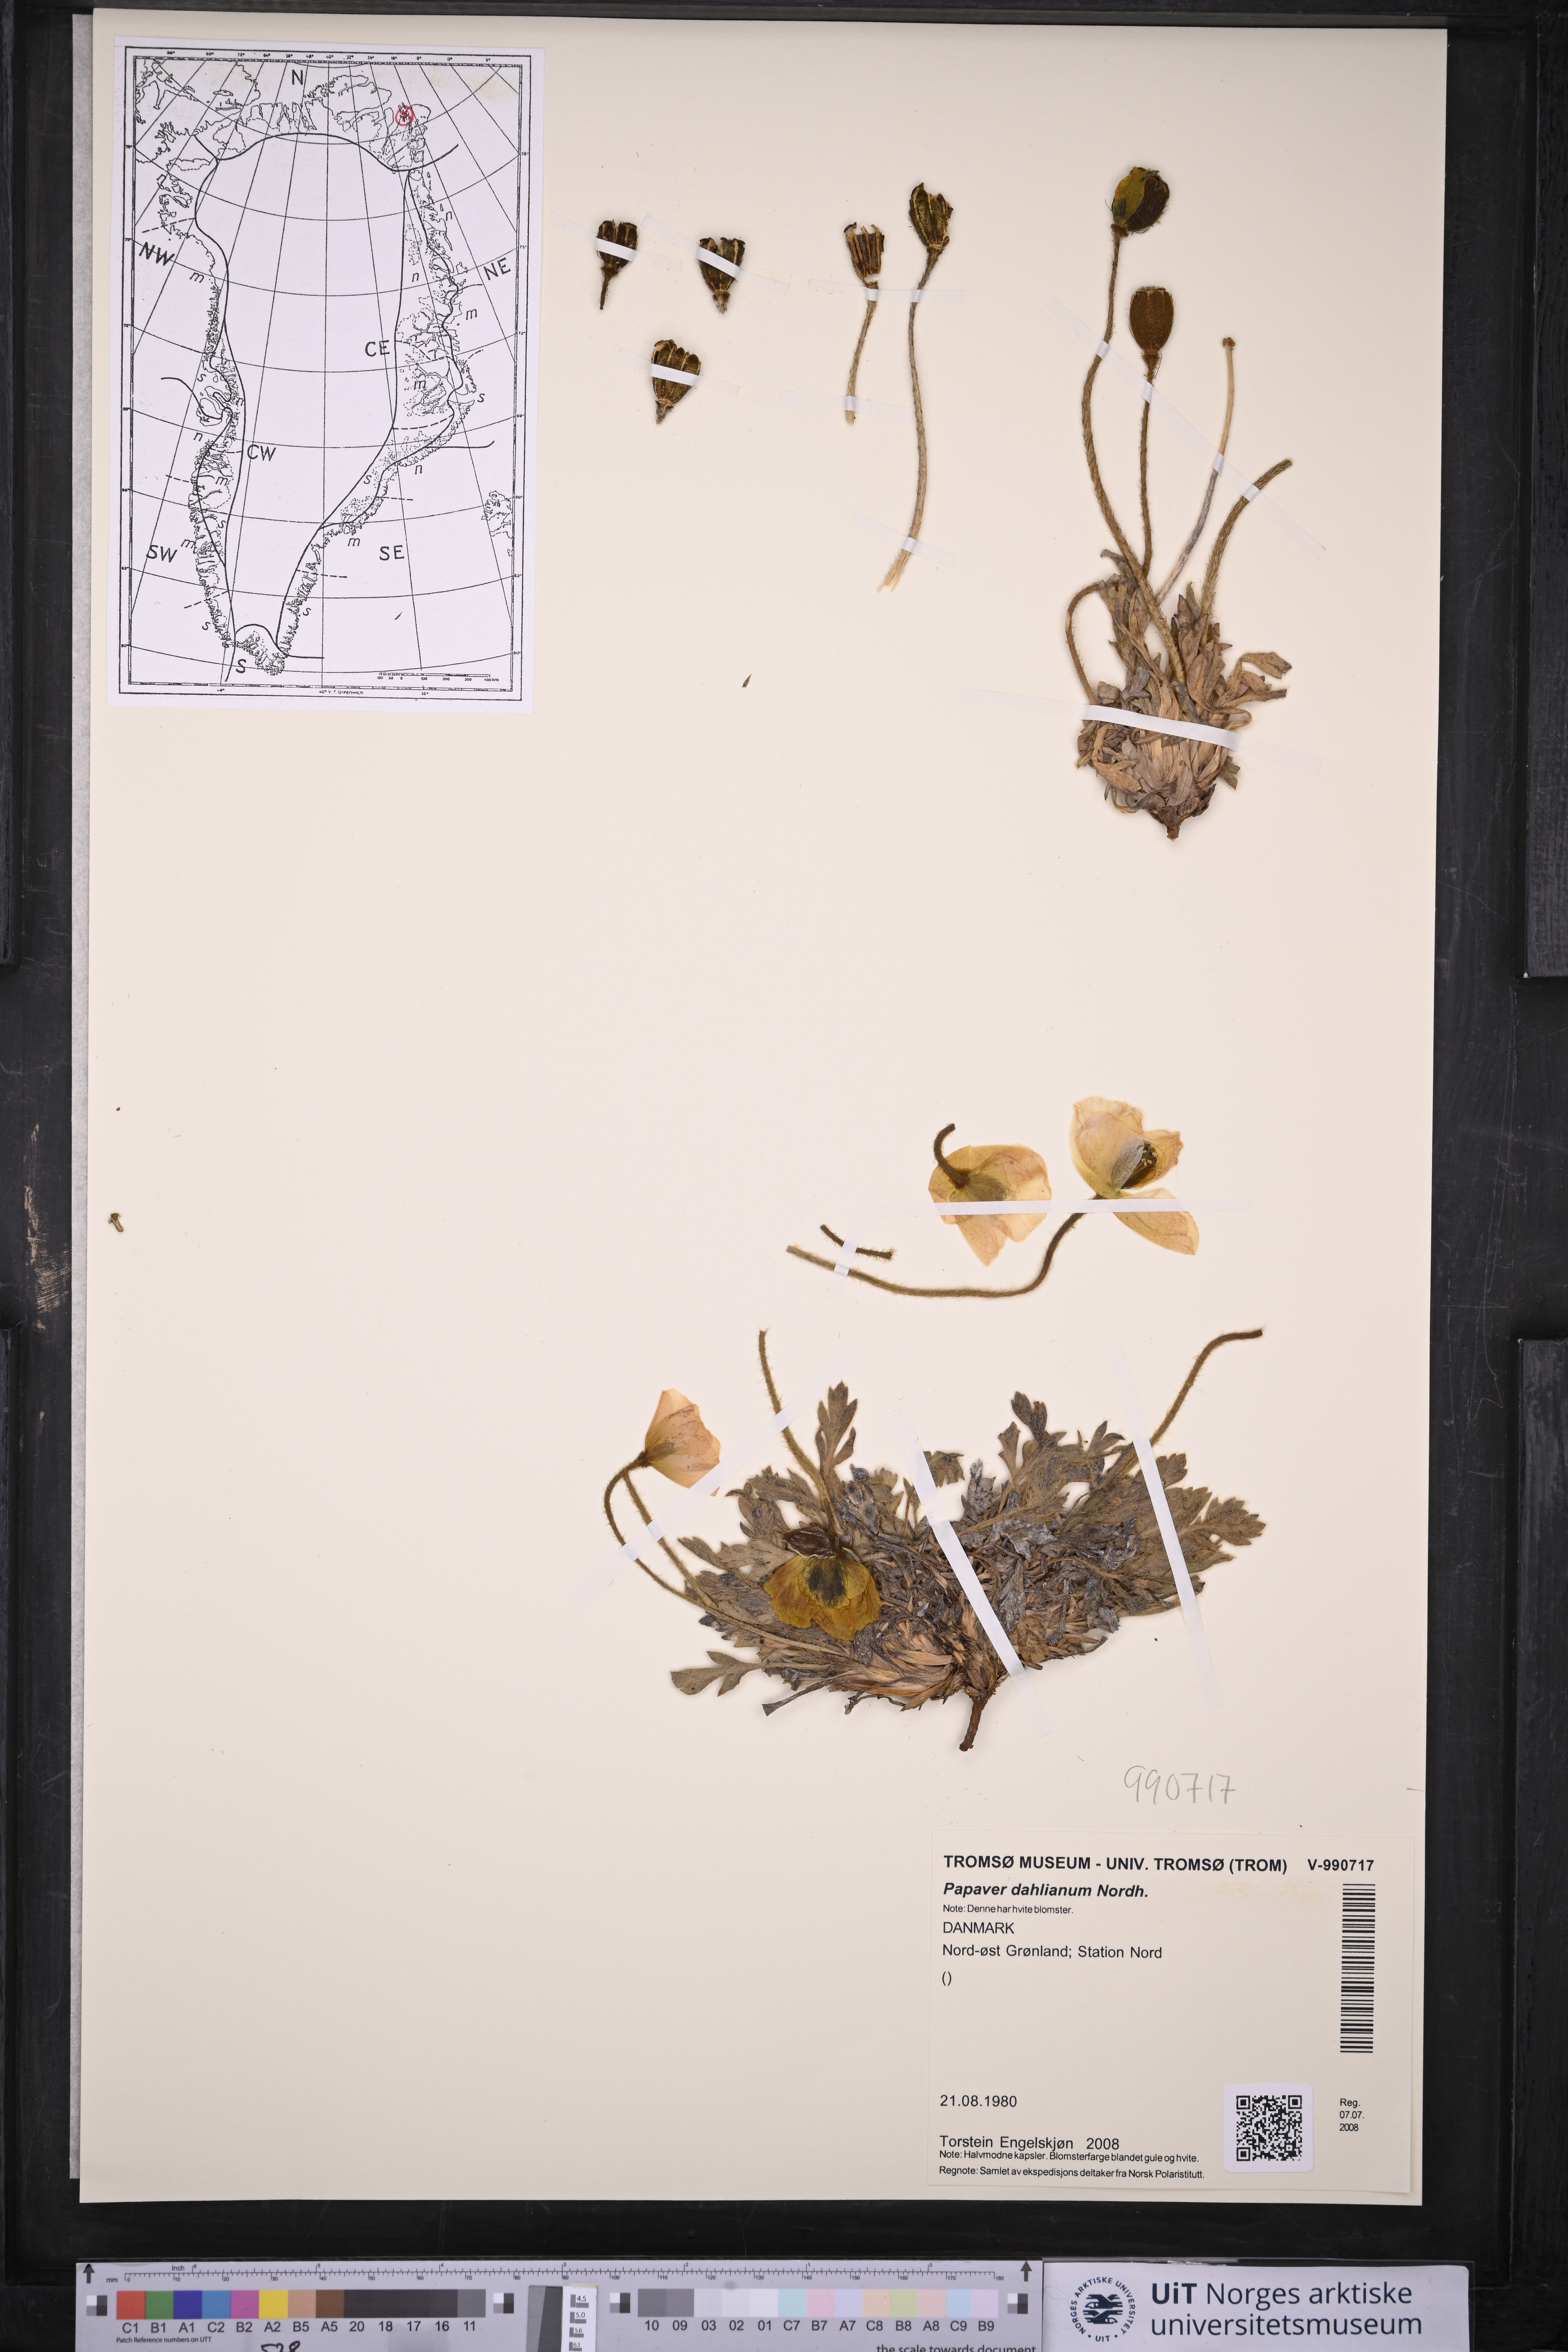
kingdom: Plantae
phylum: Tracheophyta
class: Magnoliopsida
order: Ranunculales
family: Papaveraceae
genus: Papaver
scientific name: Papaver radicatum
